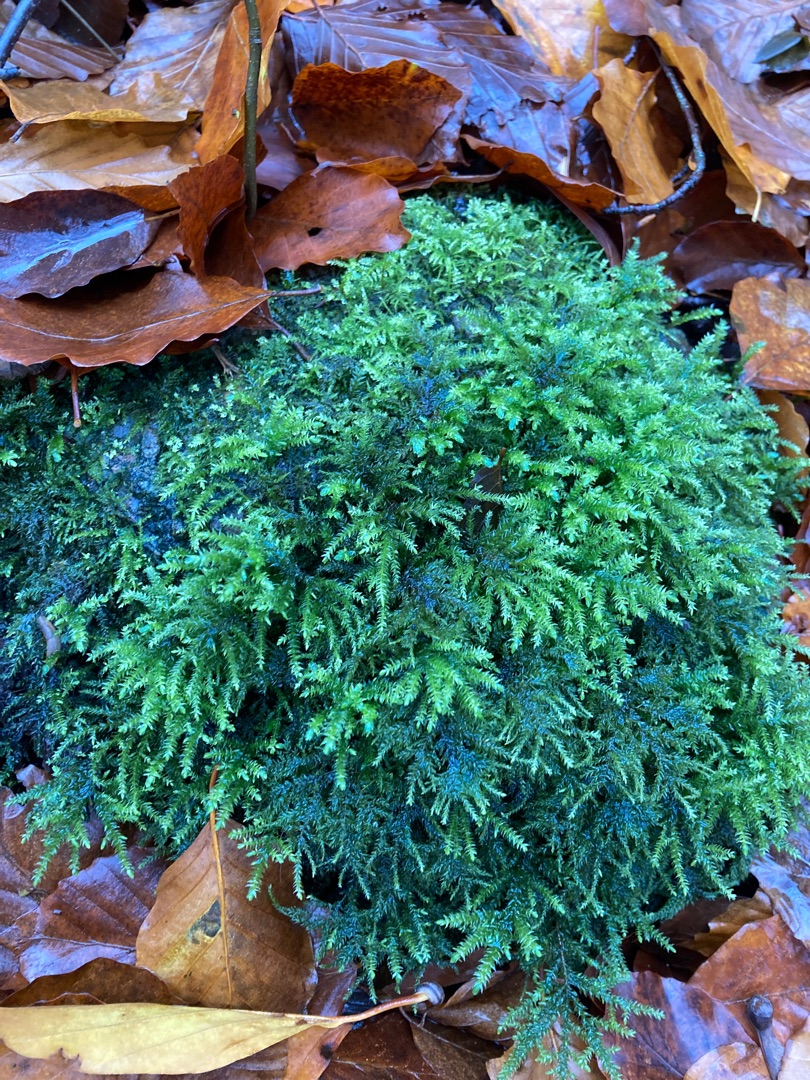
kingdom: Plantae
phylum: Bryophyta
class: Bryopsida
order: Hypnales
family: Neckeraceae
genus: Thamnobryum
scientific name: Thamnobryum alopecurum
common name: Mat bækkost
